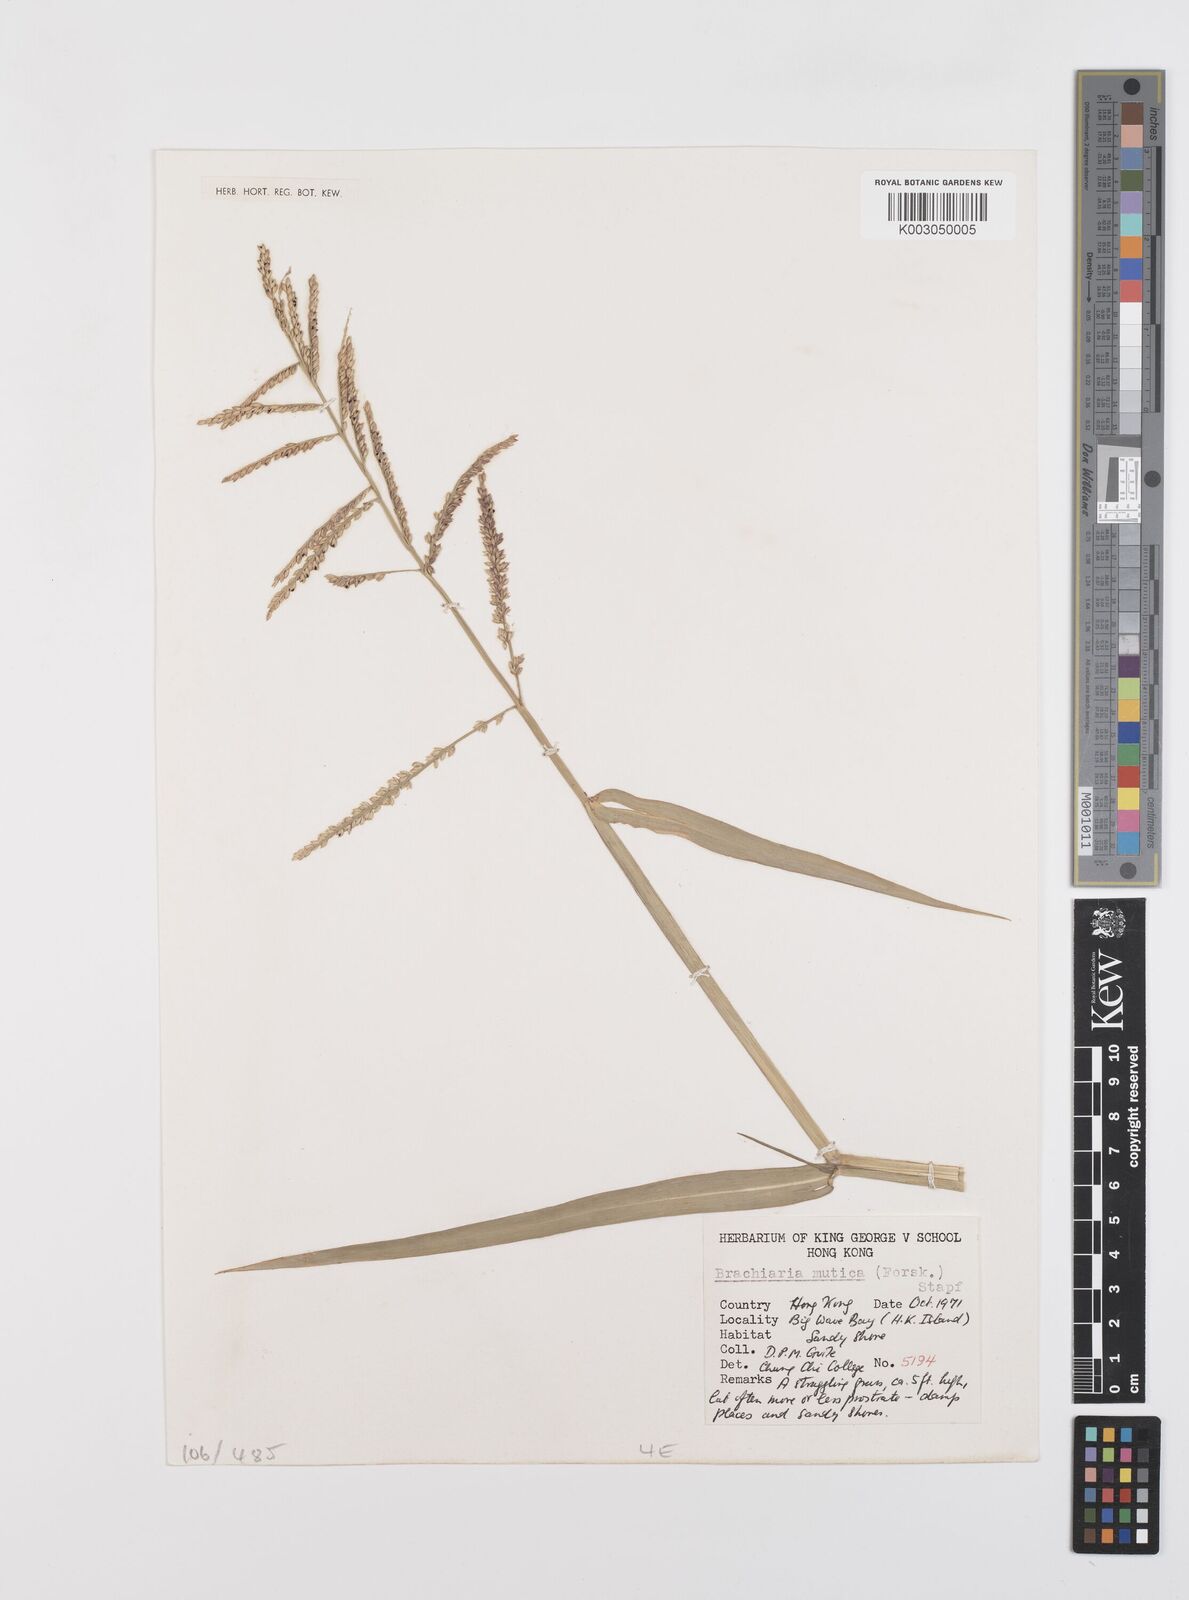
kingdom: Plantae
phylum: Tracheophyta
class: Liliopsida
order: Poales
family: Poaceae
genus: Urochloa
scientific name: Urochloa mutica
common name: Para grass
